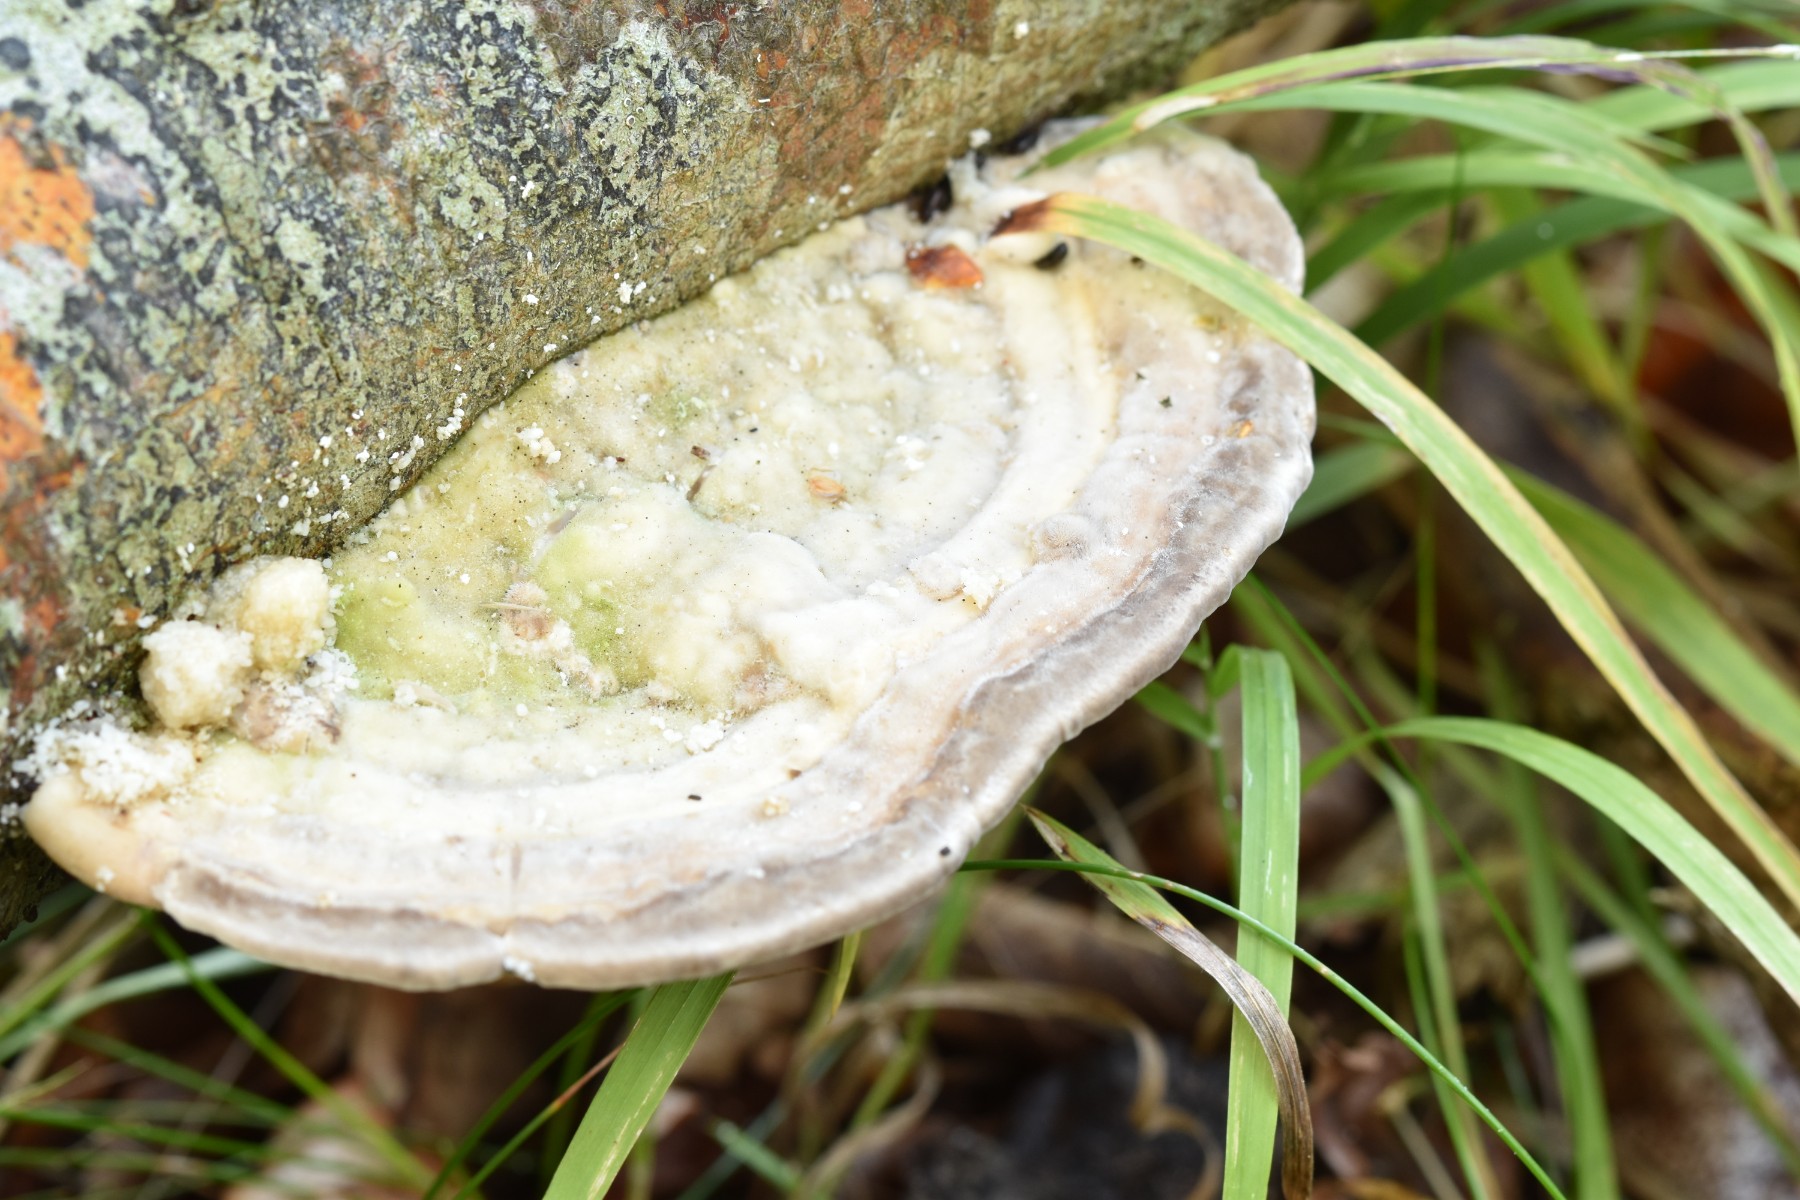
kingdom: Fungi
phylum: Basidiomycota
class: Agaricomycetes
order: Polyporales
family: Polyporaceae
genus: Trametes
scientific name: Trametes gibbosa
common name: puklet læderporesvamp
